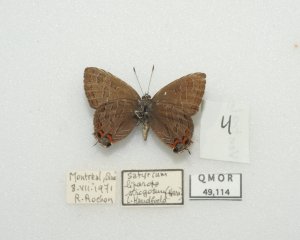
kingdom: Animalia
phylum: Arthropoda
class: Insecta
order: Lepidoptera
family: Lycaenidae
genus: Satyrium
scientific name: Satyrium liparops
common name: Striped Hairstreak
